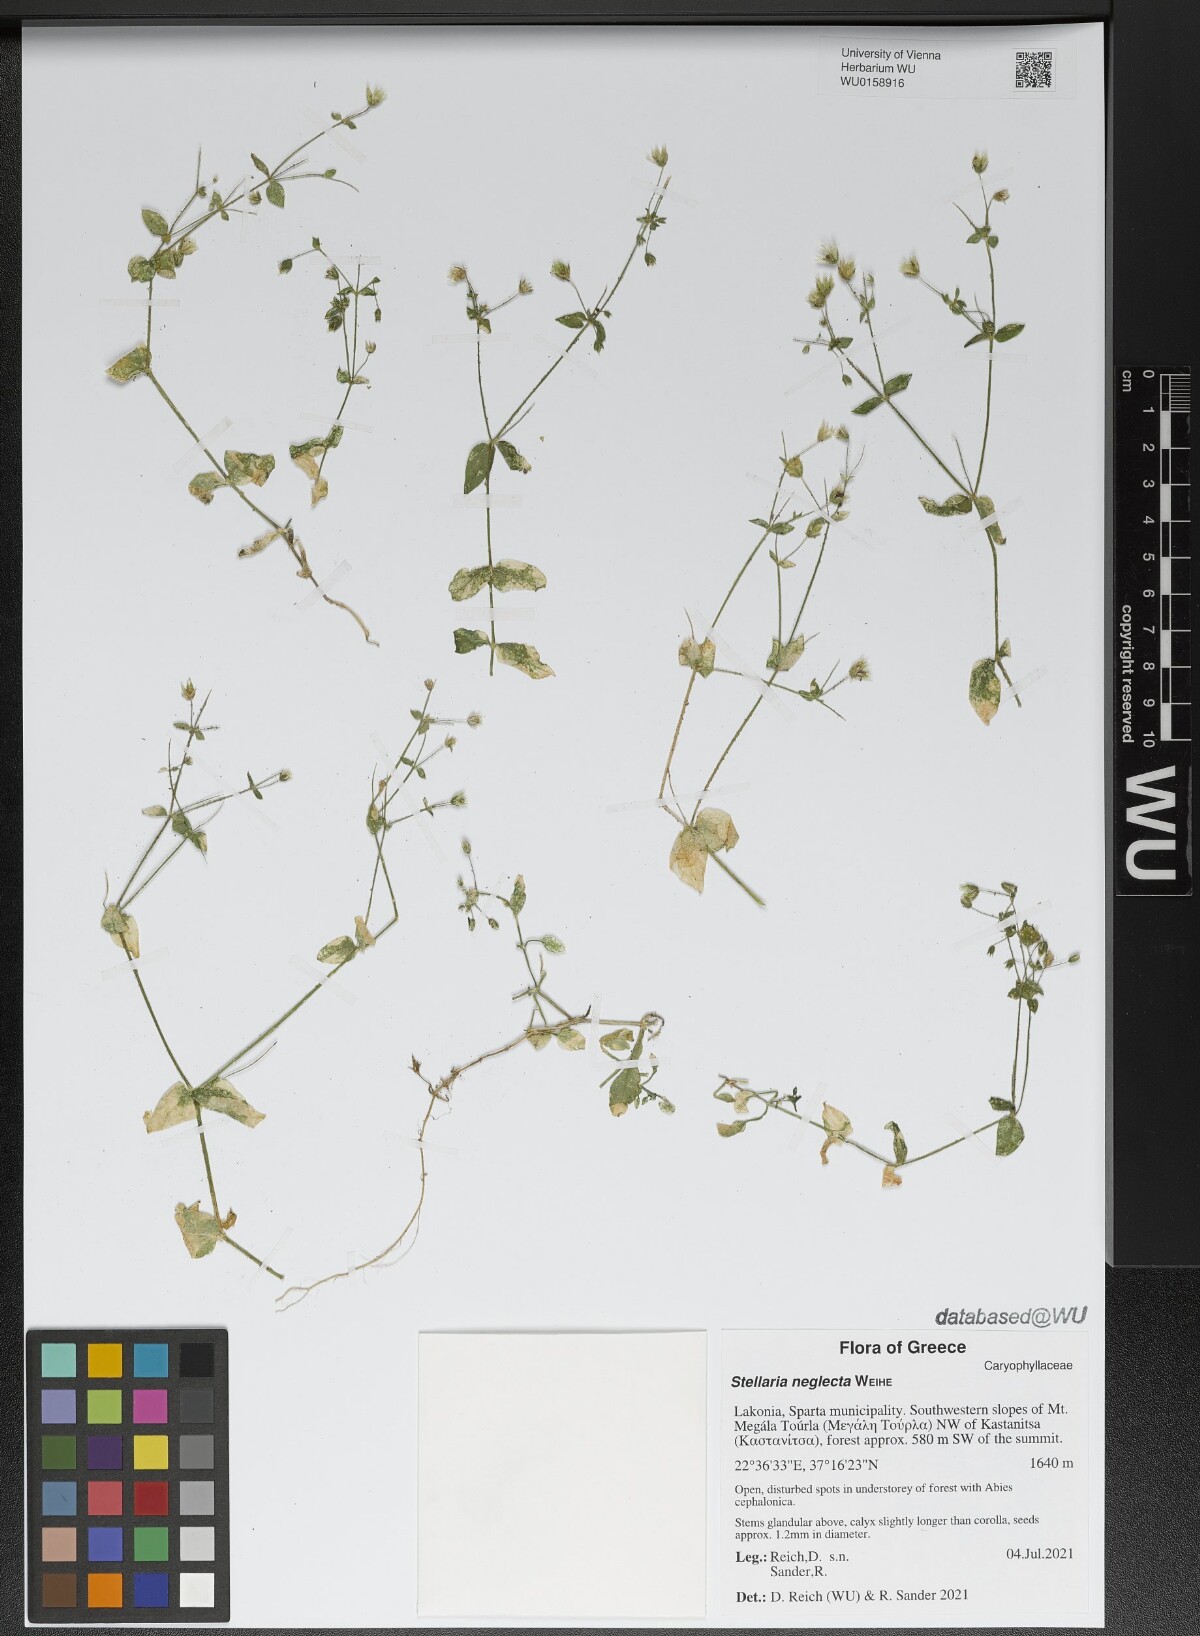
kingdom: Plantae
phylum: Tracheophyta
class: Magnoliopsida
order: Caryophyllales
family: Caryophyllaceae
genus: Stellaria
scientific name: Stellaria neglecta
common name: Greater chickweed
